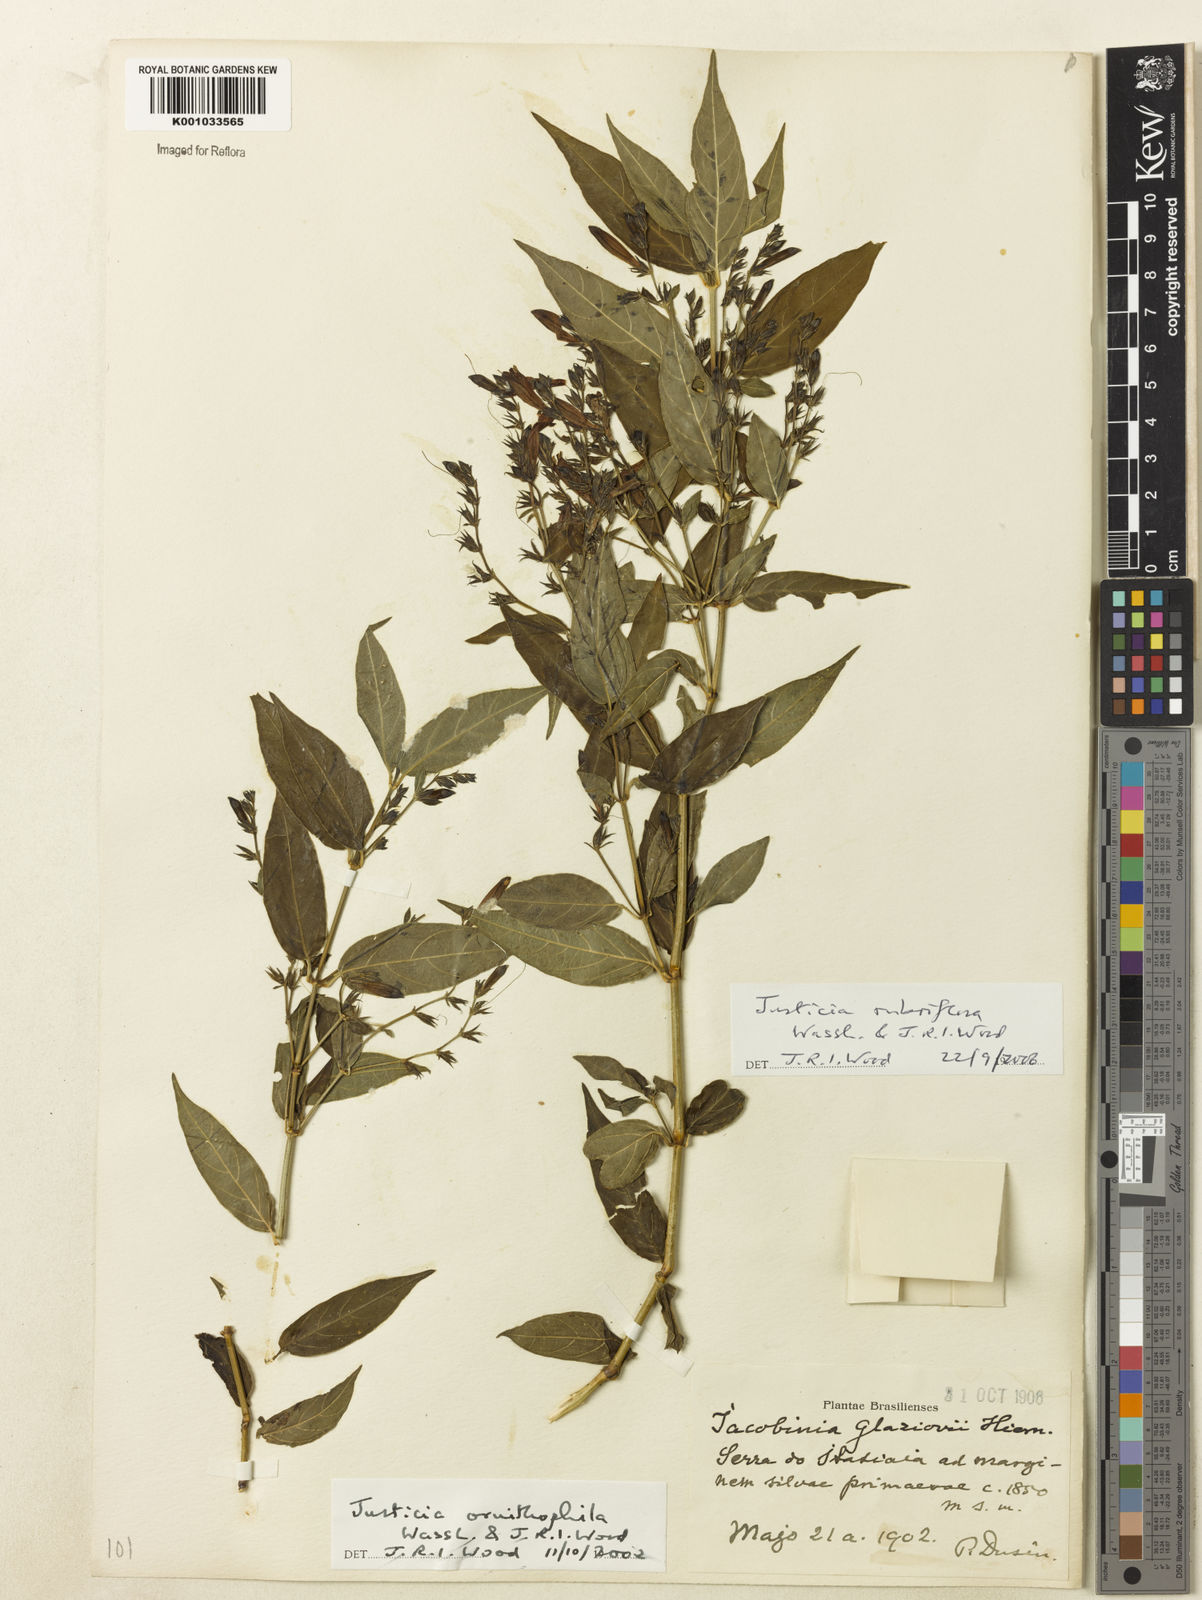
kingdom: Plantae
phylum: Tracheophyta
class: Magnoliopsida
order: Lamiales
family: Acanthaceae
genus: Justicia
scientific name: Justicia rubriflora
